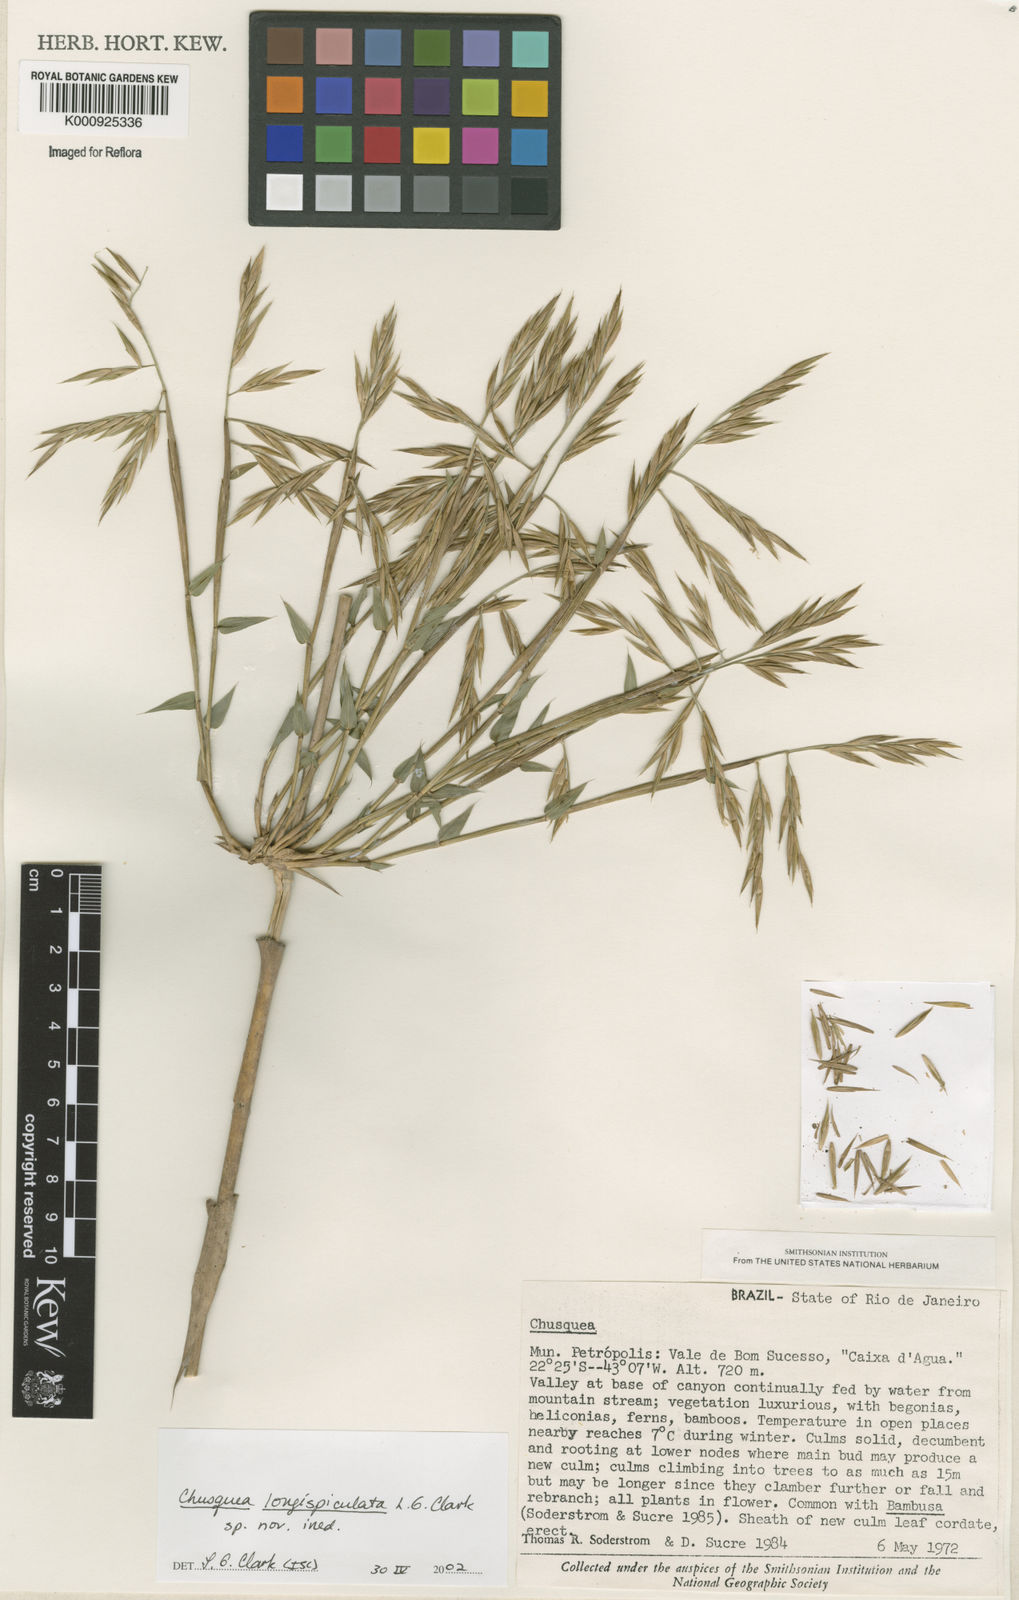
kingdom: Plantae
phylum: Tracheophyta
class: Liliopsida
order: Poales
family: Poaceae
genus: Chusquea
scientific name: Chusquea longispiculata
